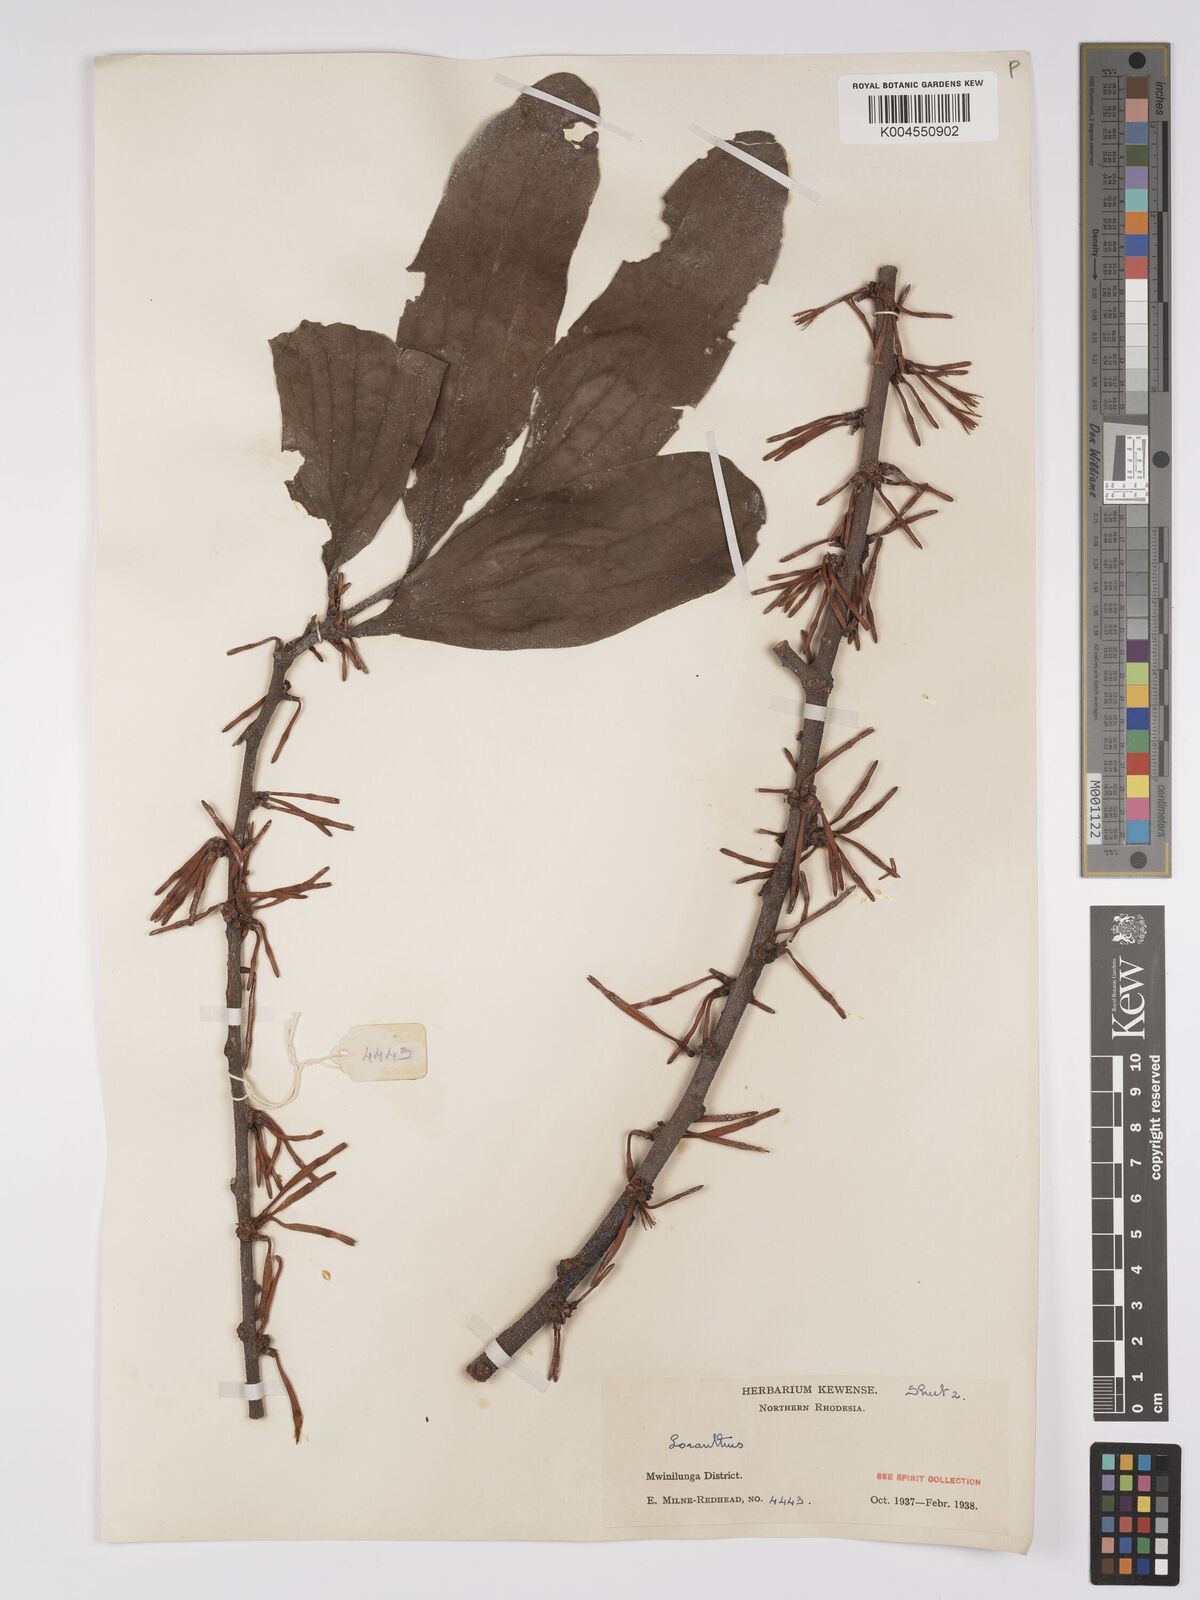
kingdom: Plantae
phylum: Tracheophyta
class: Magnoliopsida
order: Santalales
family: Loranthaceae
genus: Agelanthus
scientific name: Agelanthus zizyphifolius
